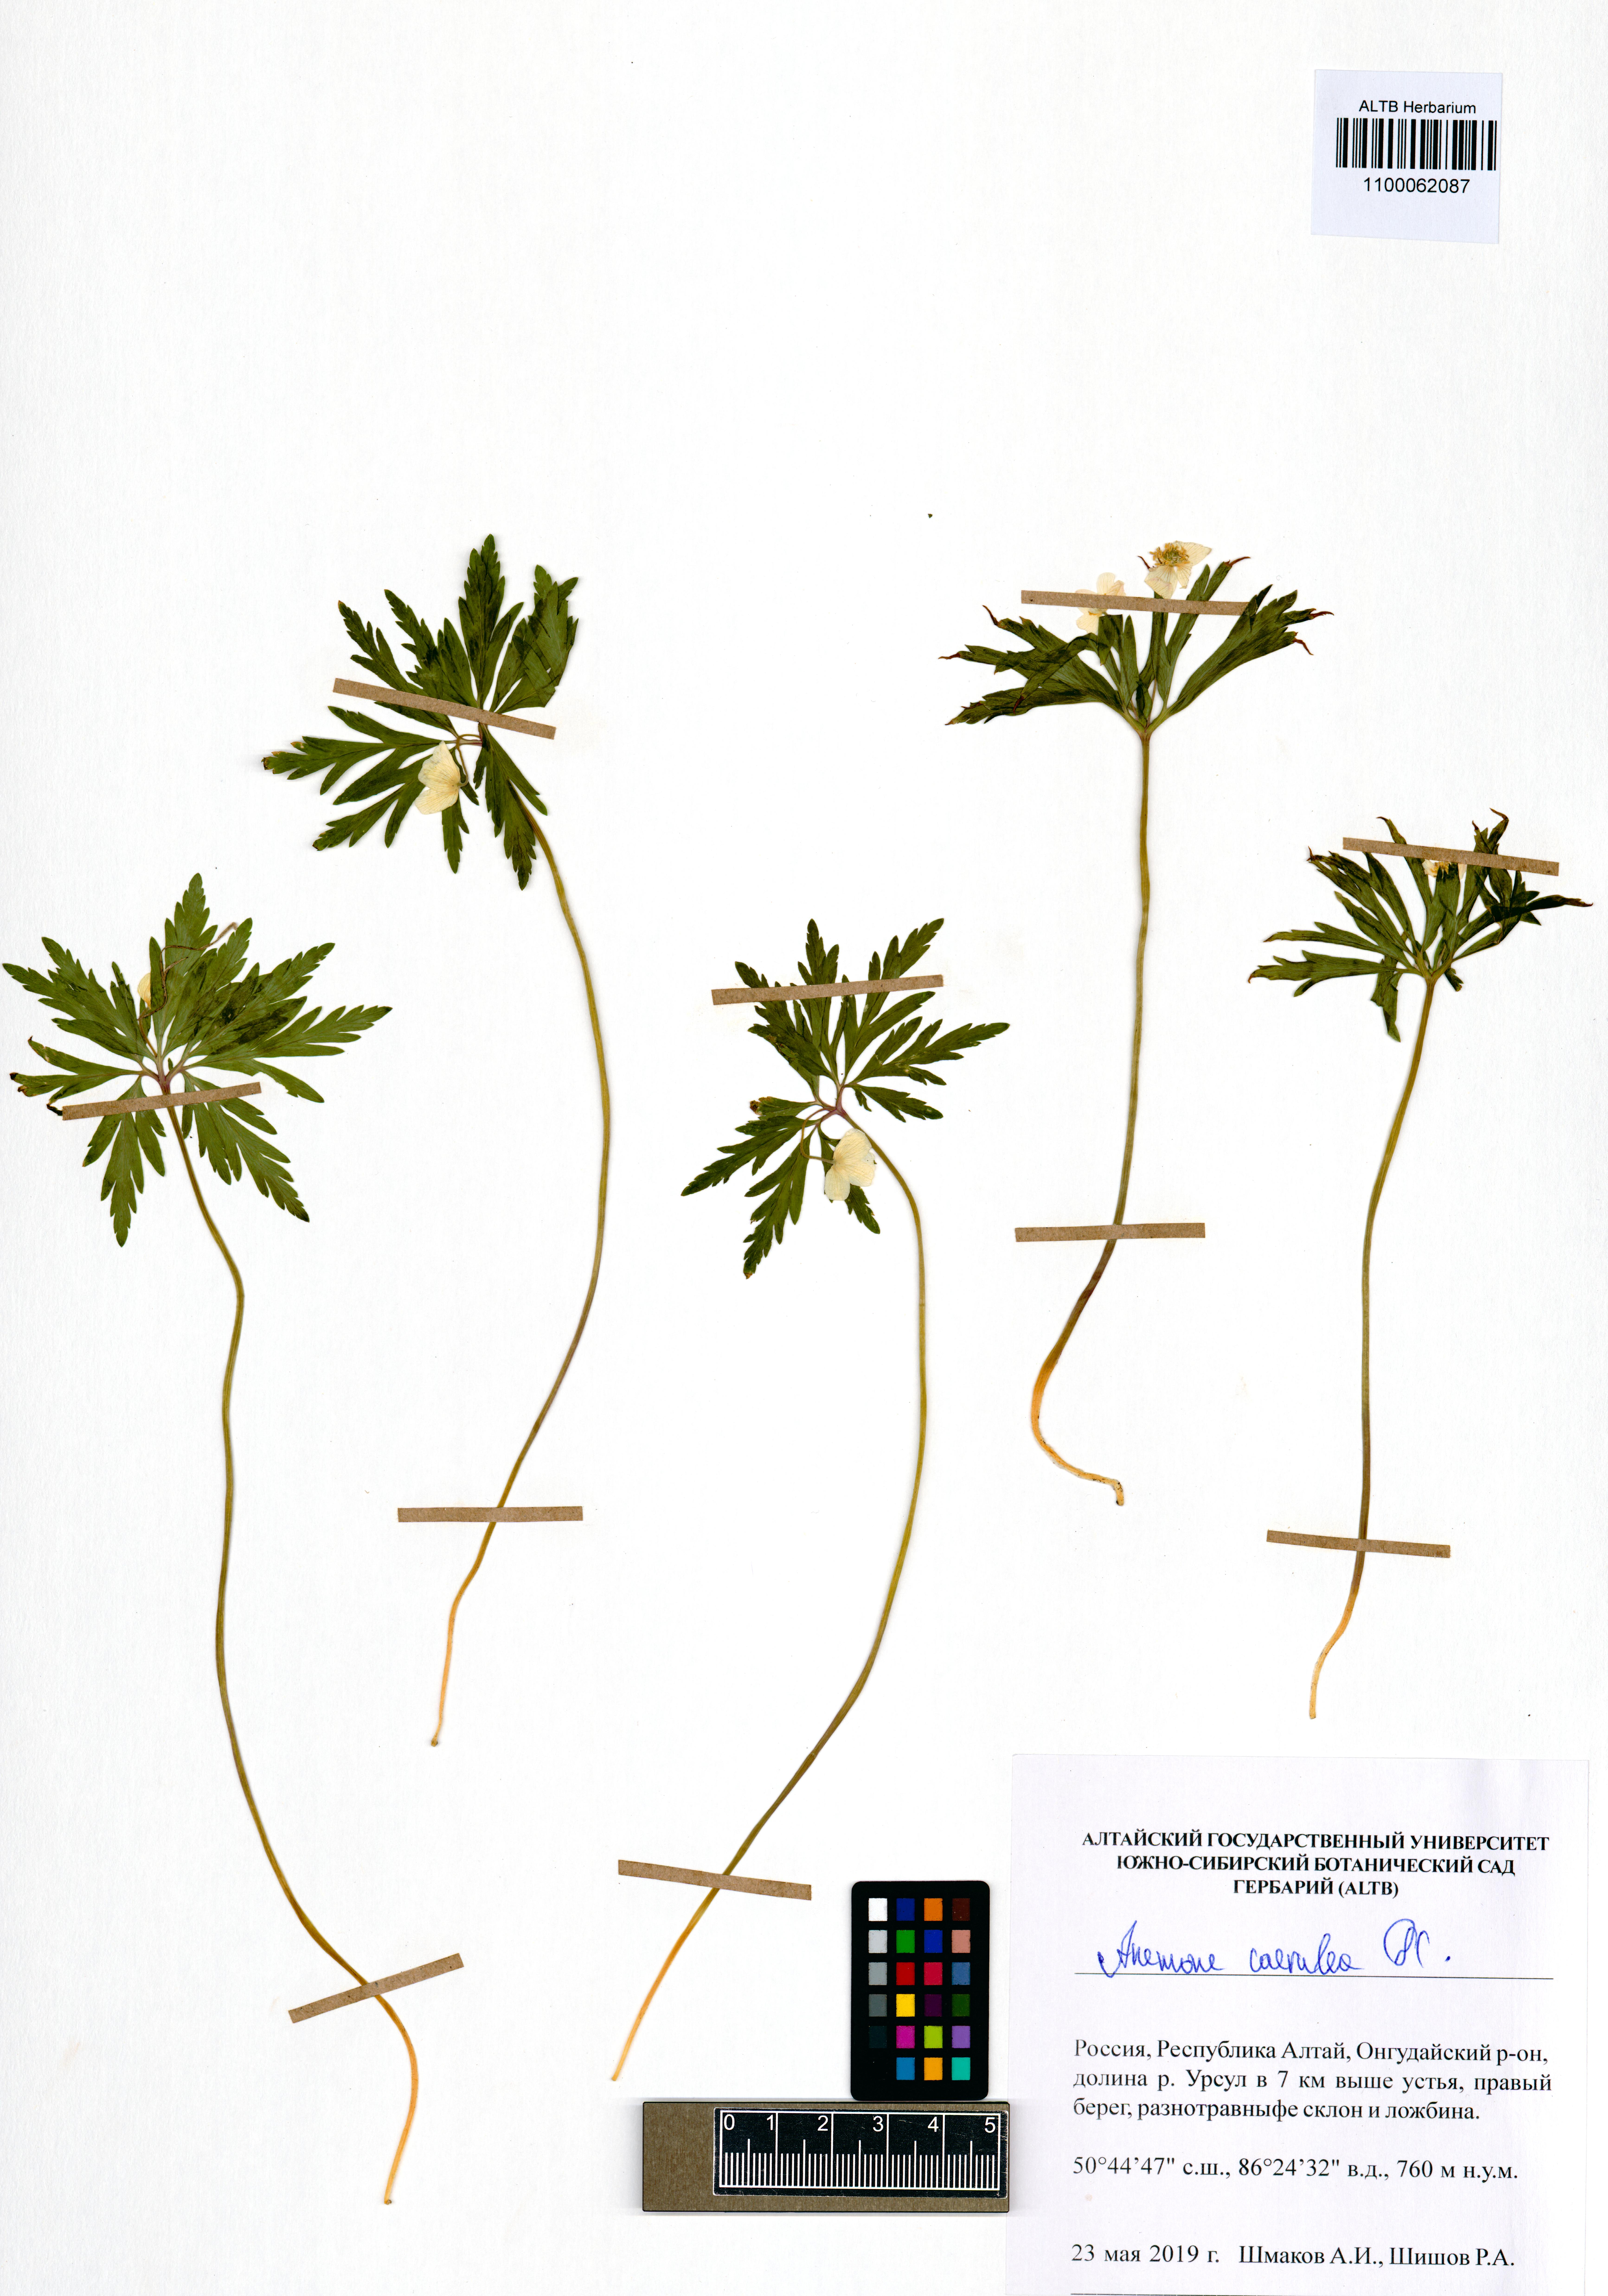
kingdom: Plantae
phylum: Tracheophyta
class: Magnoliopsida
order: Ranunculales
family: Ranunculaceae
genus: Anemone
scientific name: Anemone caerulea
